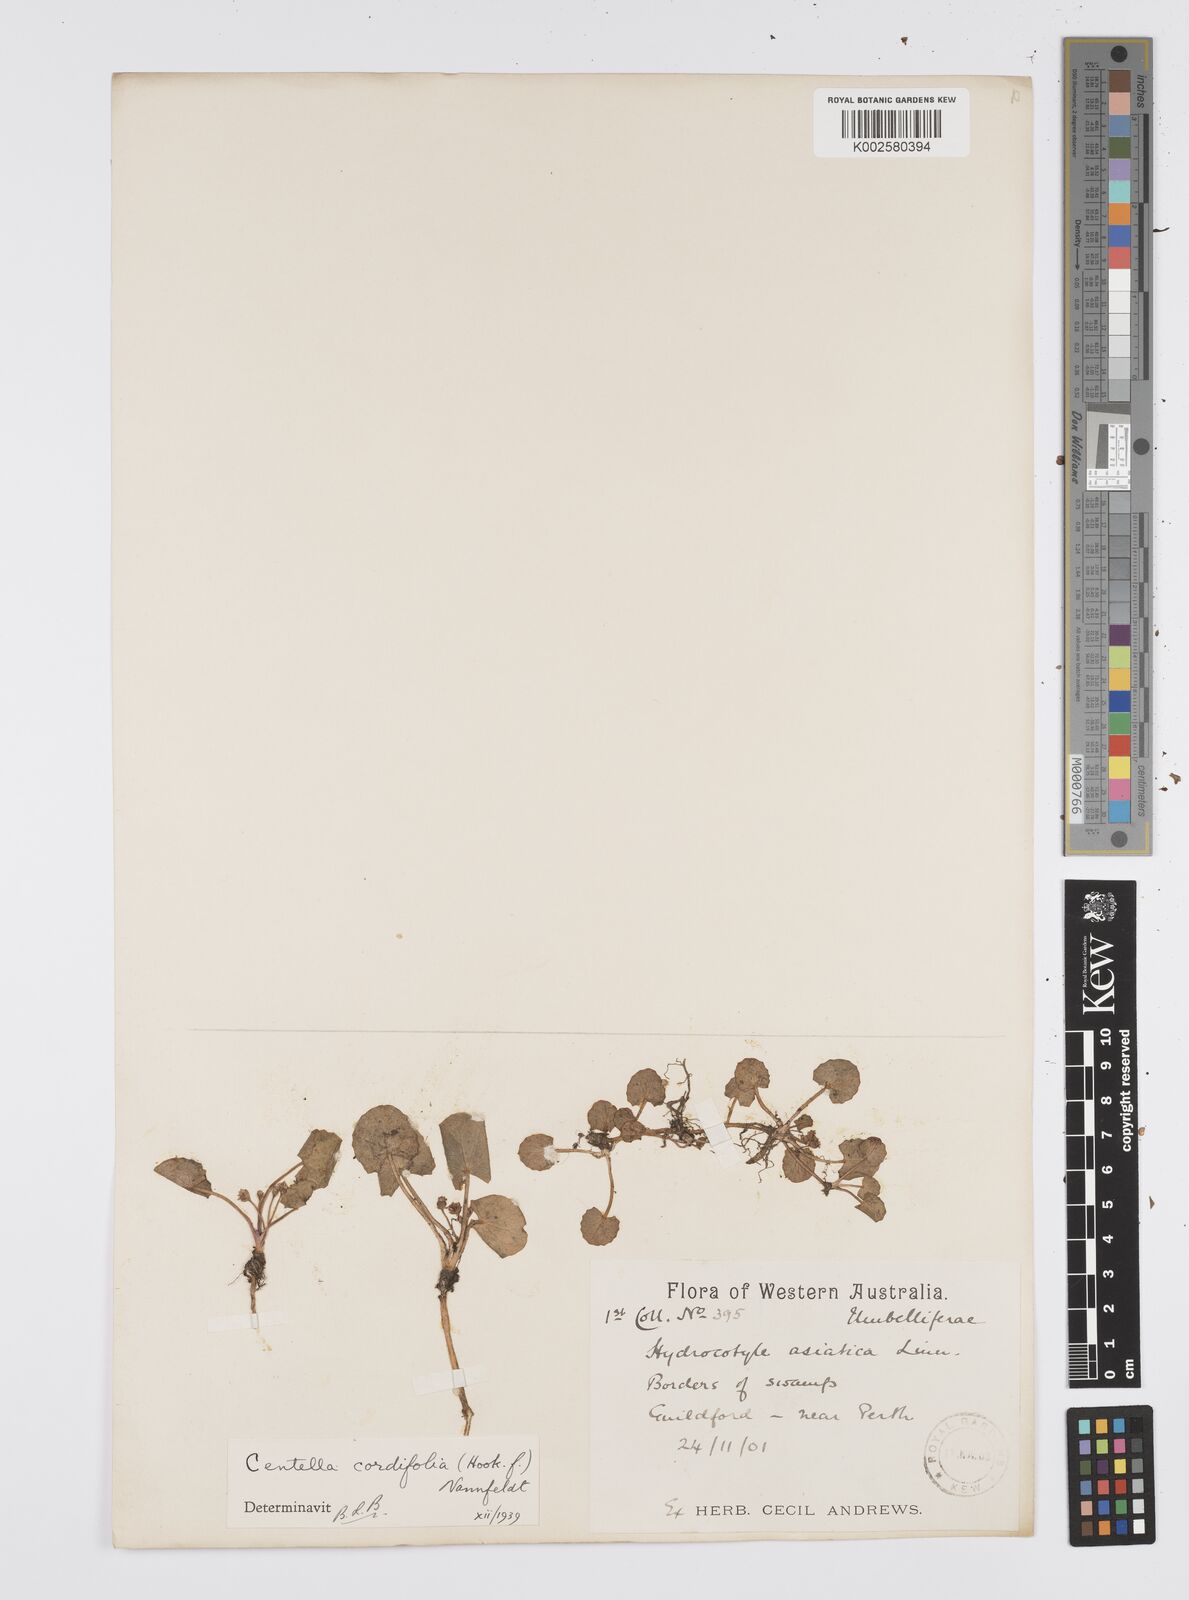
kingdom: Plantae
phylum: Tracheophyta
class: Magnoliopsida
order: Apiales
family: Apiaceae
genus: Centella
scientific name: Centella cordifolia
